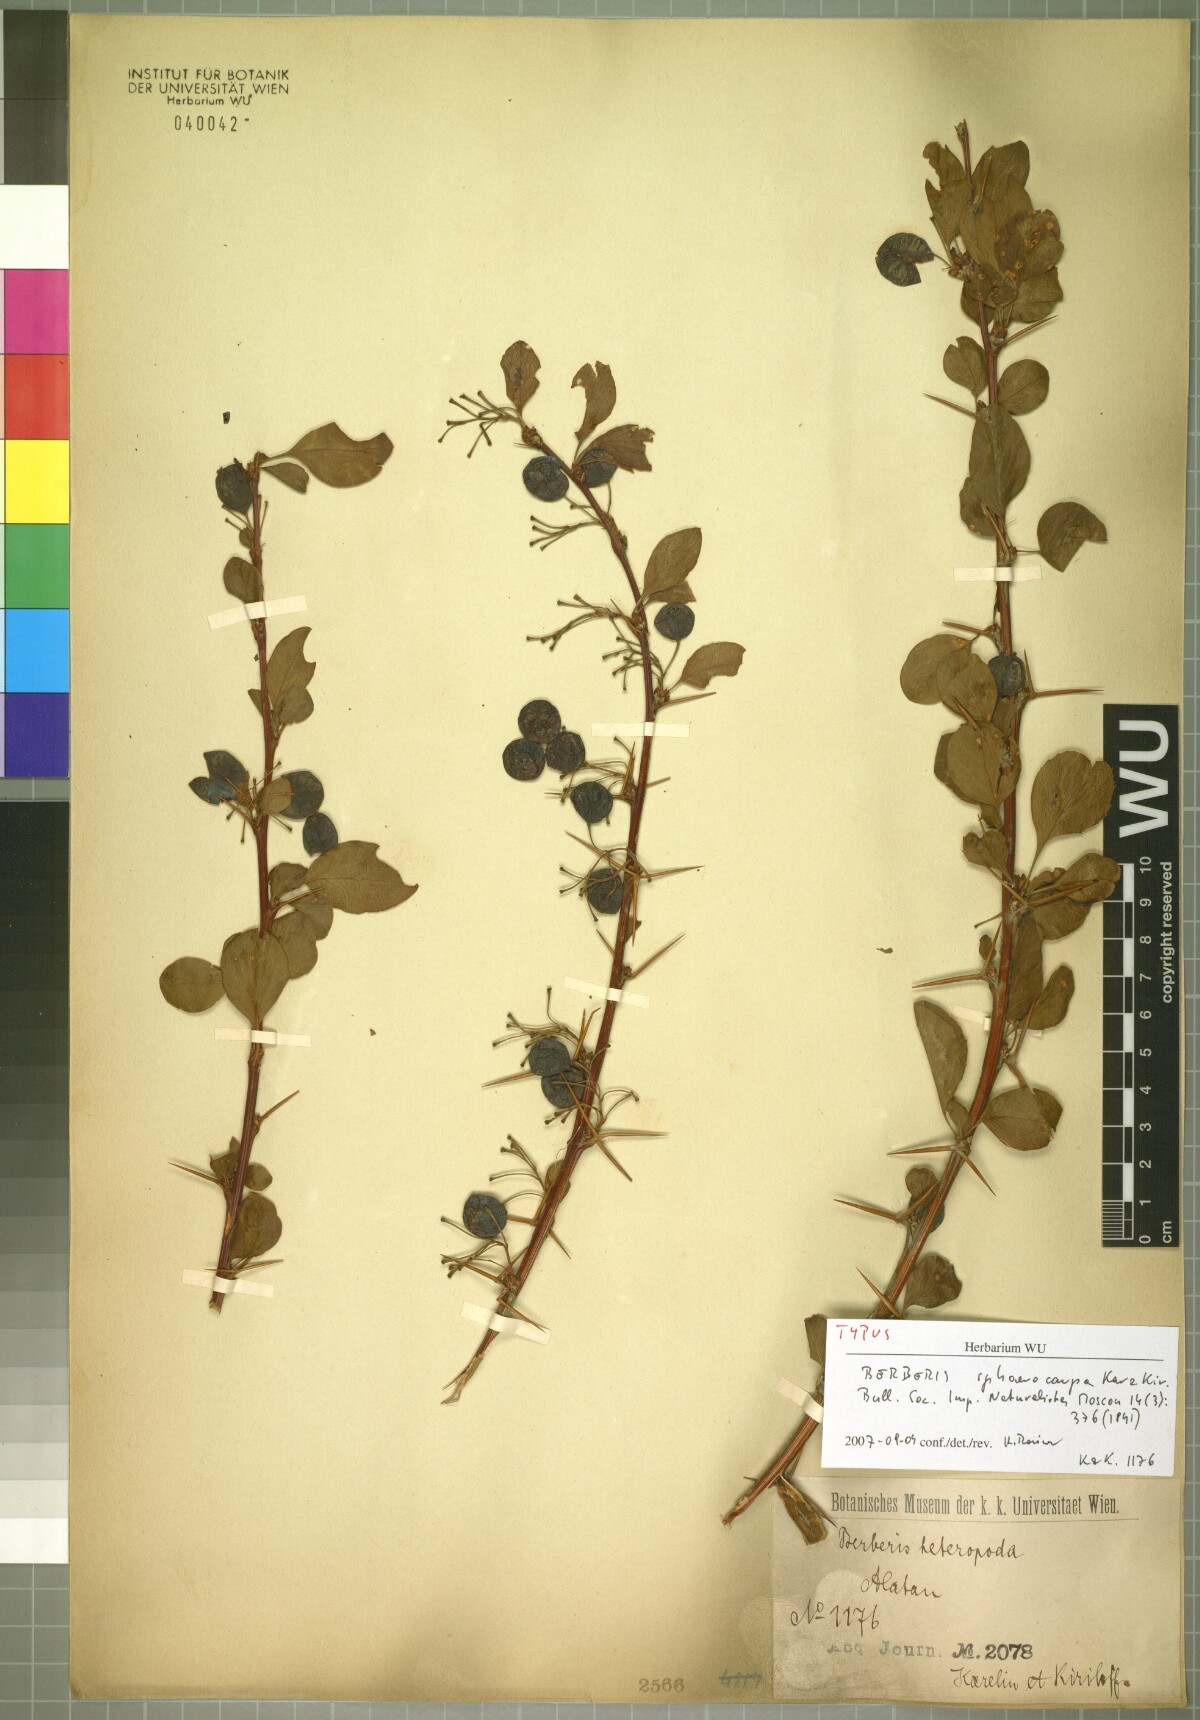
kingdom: Plantae
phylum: Tracheophyta
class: Magnoliopsida
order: Ranunculales
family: Berberidaceae
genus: Berberis
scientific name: Berberis heteropoda
